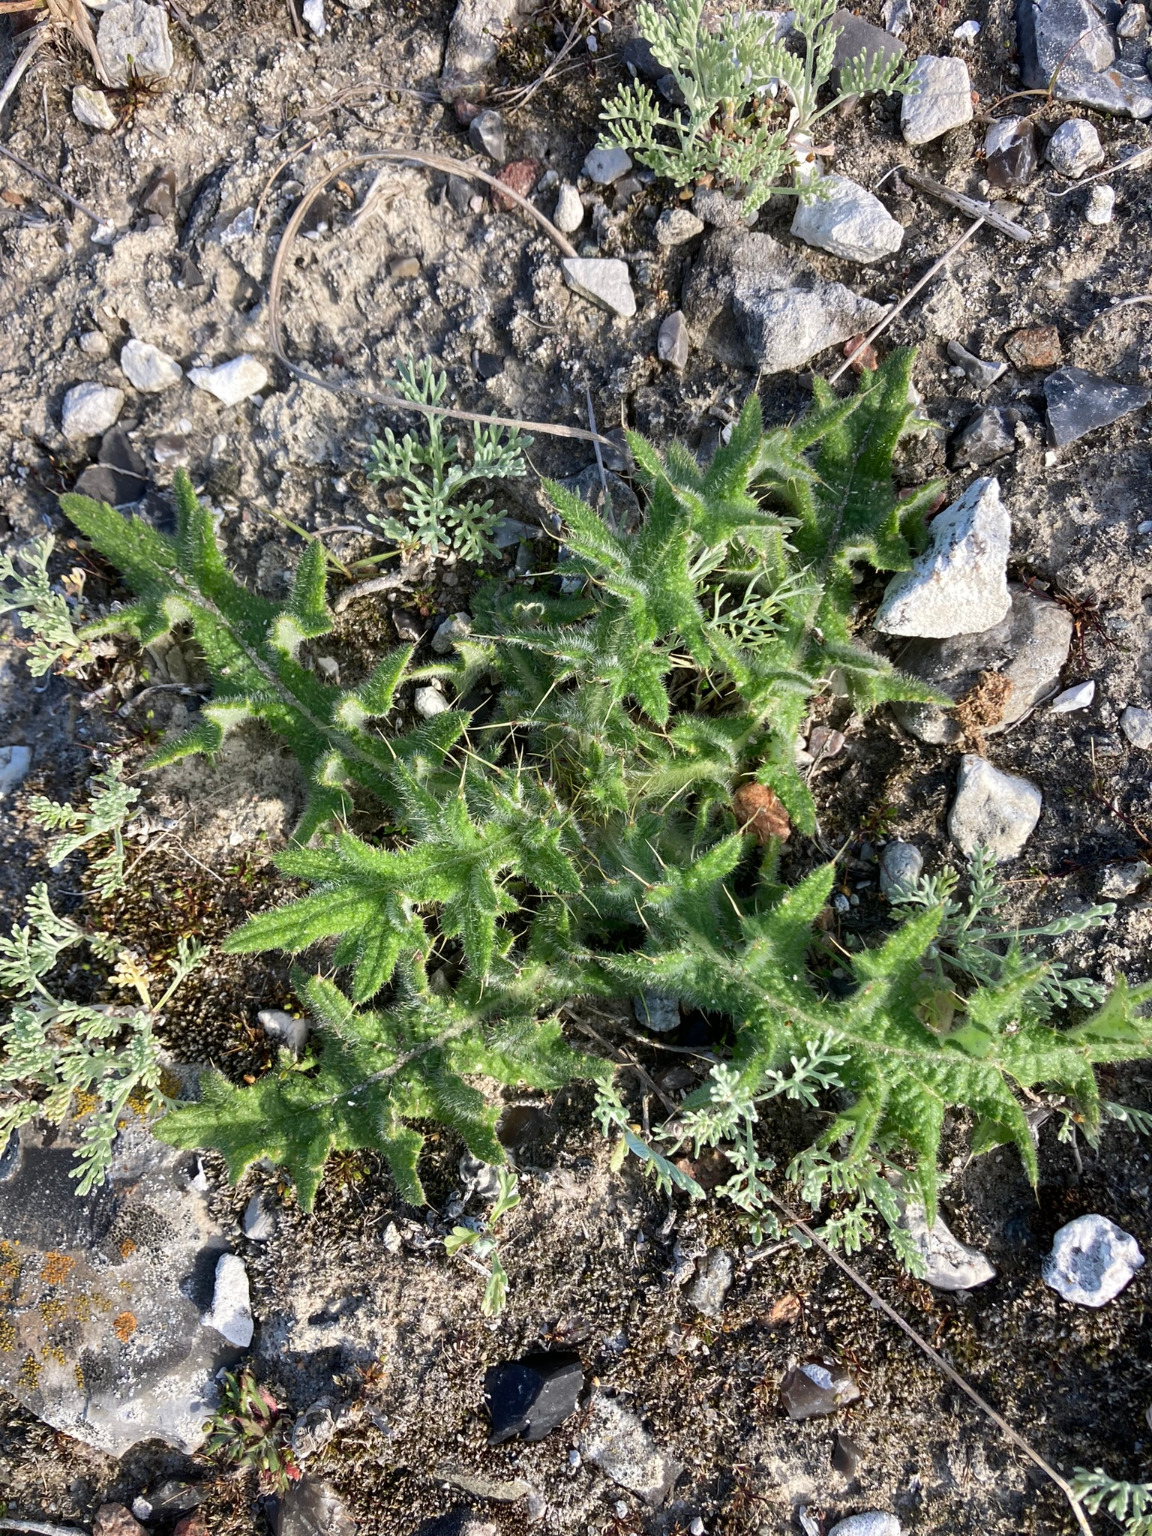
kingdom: Plantae
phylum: Tracheophyta
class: Magnoliopsida
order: Asterales
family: Asteraceae
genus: Cirsium
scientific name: Cirsium vulgare
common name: Horse-tidsel
